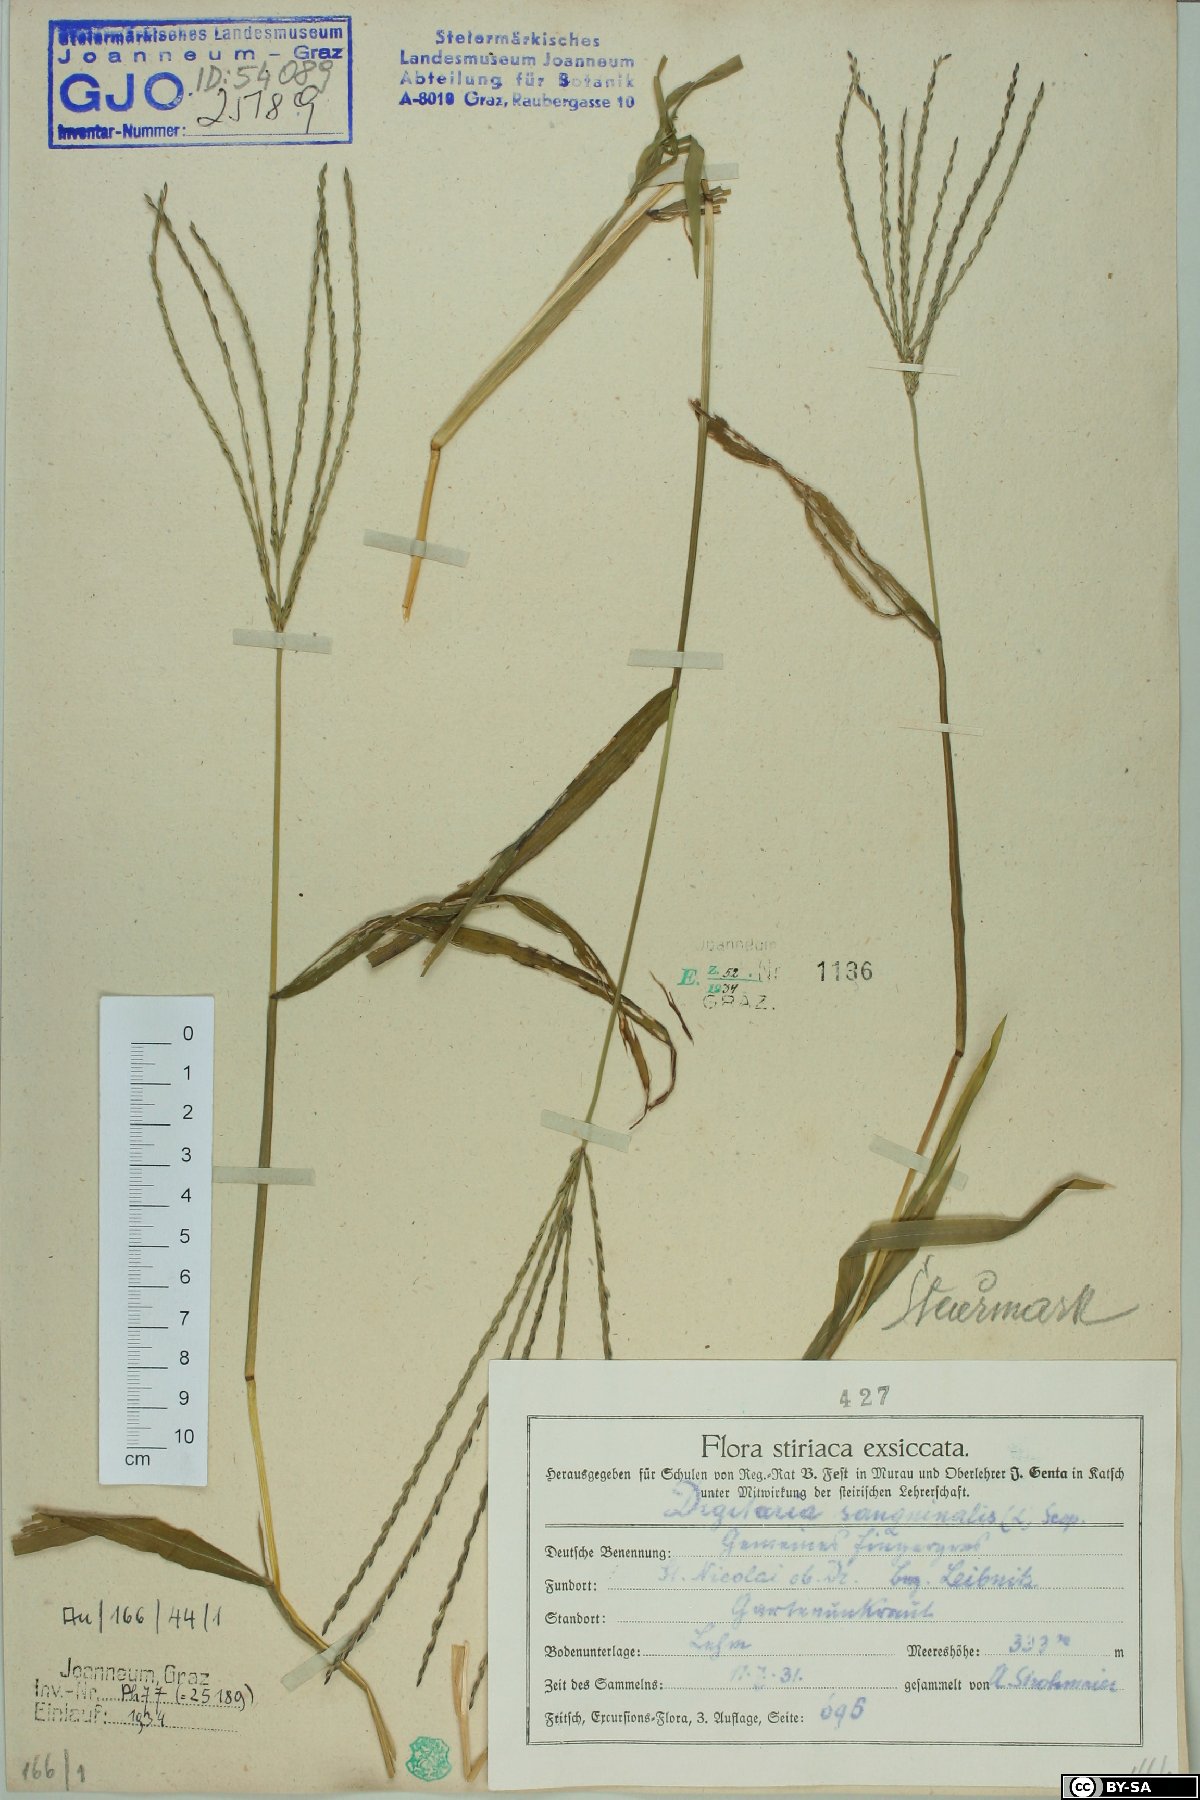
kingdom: Plantae
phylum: Tracheophyta
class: Liliopsida
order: Poales
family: Poaceae
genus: Digitaria
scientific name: Digitaria sanguinalis
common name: Hairy crabgrass
